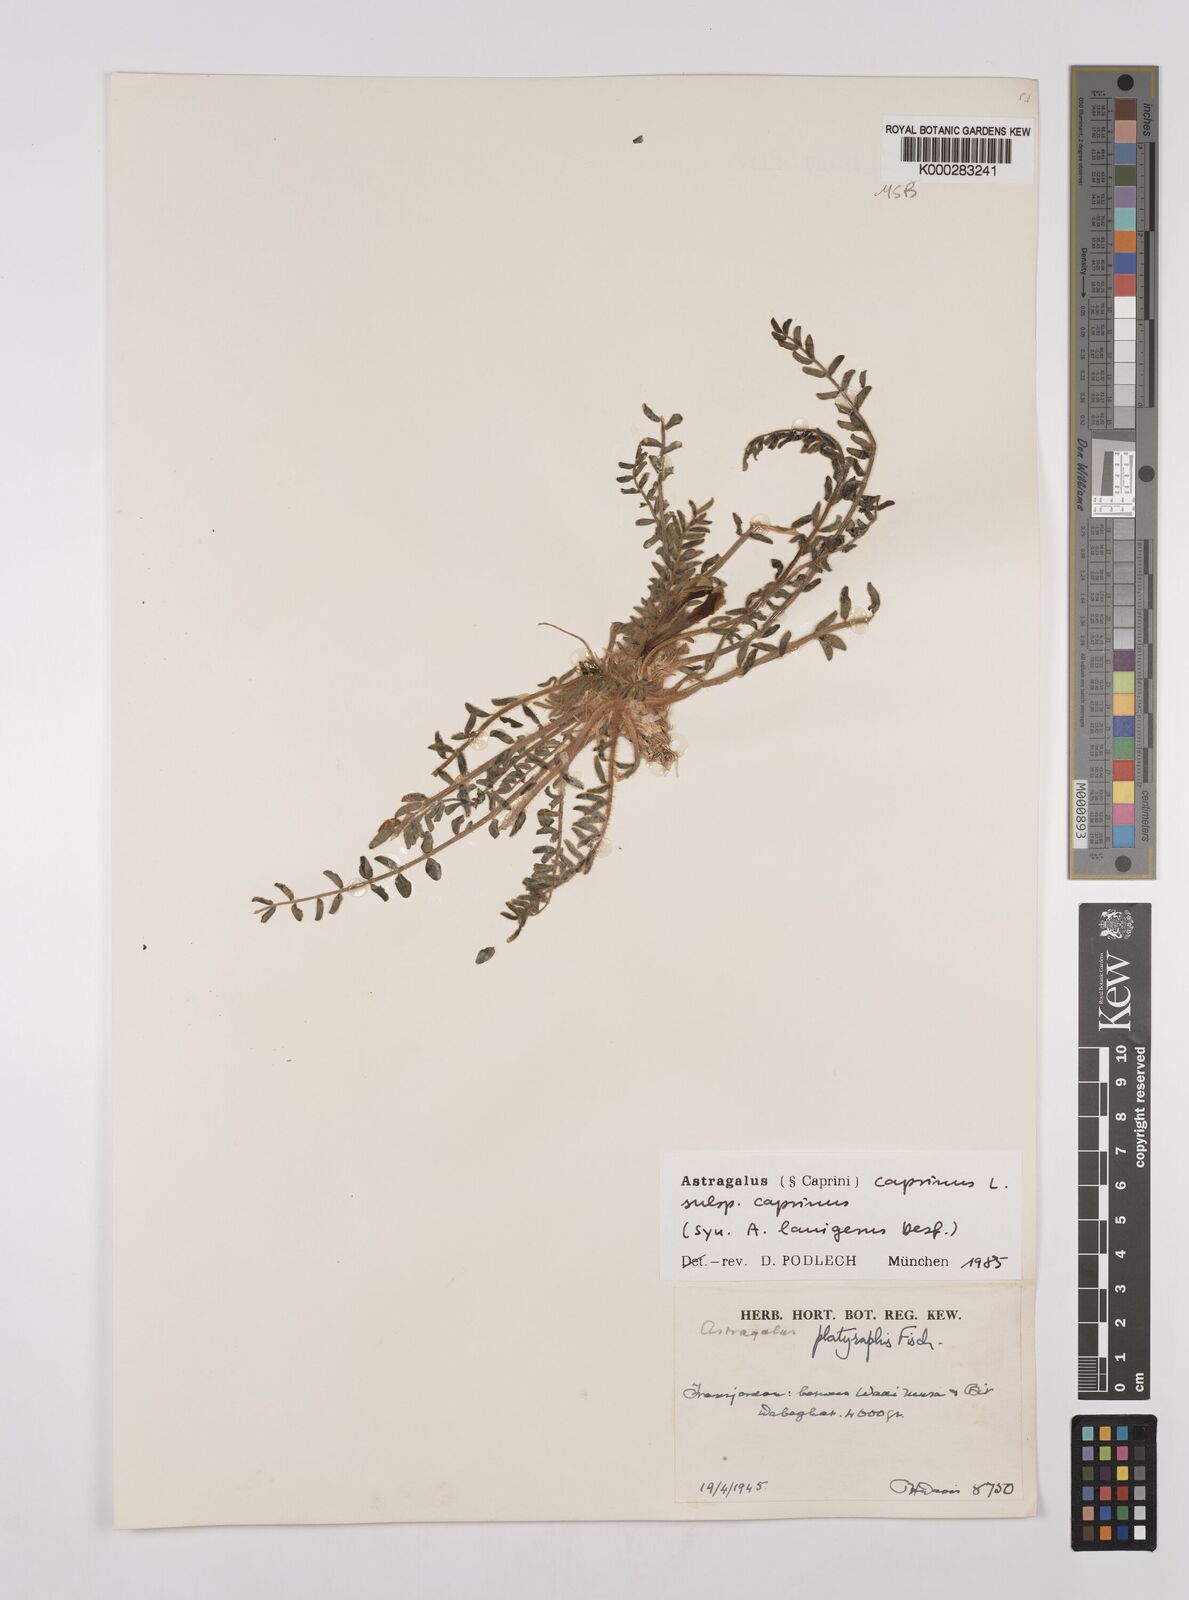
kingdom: Plantae
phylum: Tracheophyta
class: Magnoliopsida
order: Fabales
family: Fabaceae
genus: Astragalus
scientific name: Astragalus caprinus
